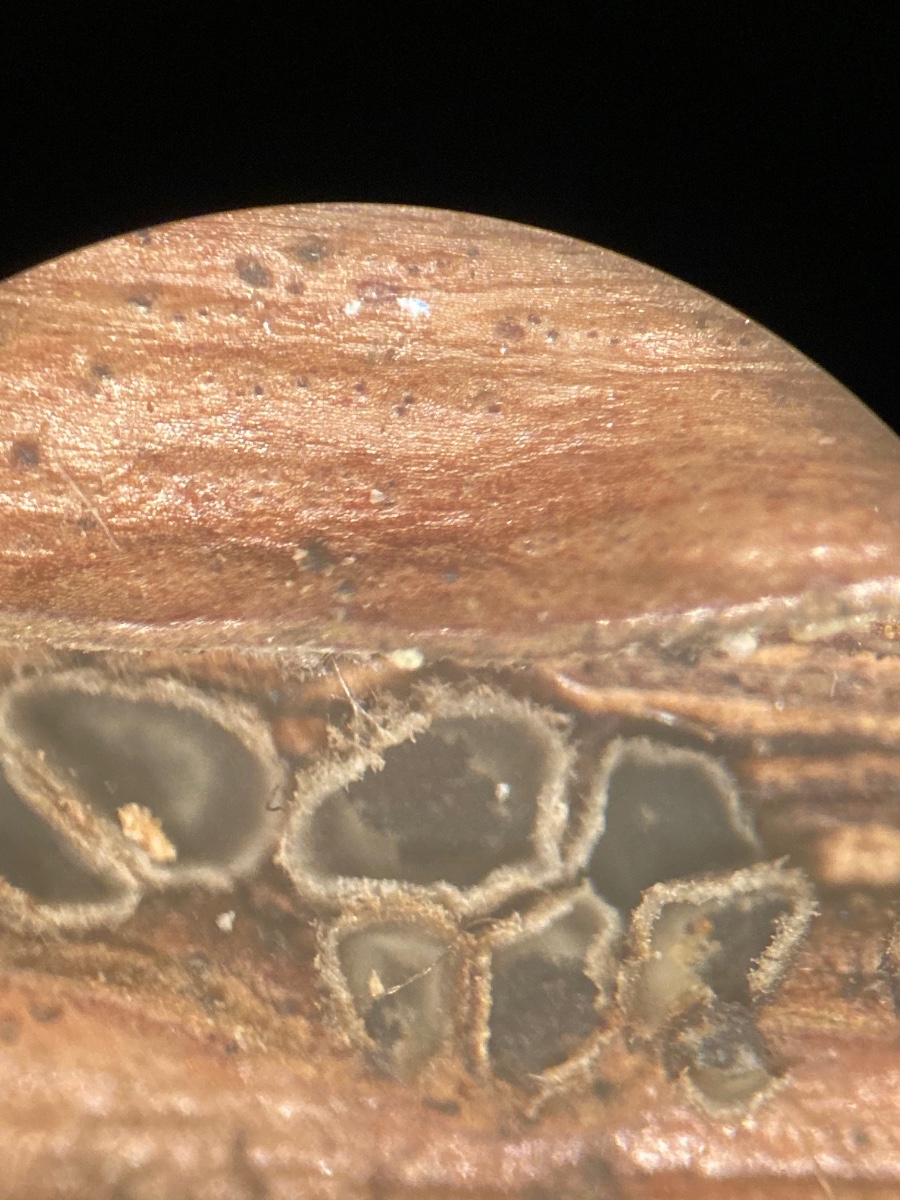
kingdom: Fungi
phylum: Ascomycota
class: Leotiomycetes
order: Helotiales
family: Mollisiaceae
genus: Mollisia
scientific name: Mollisia
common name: gråskive
